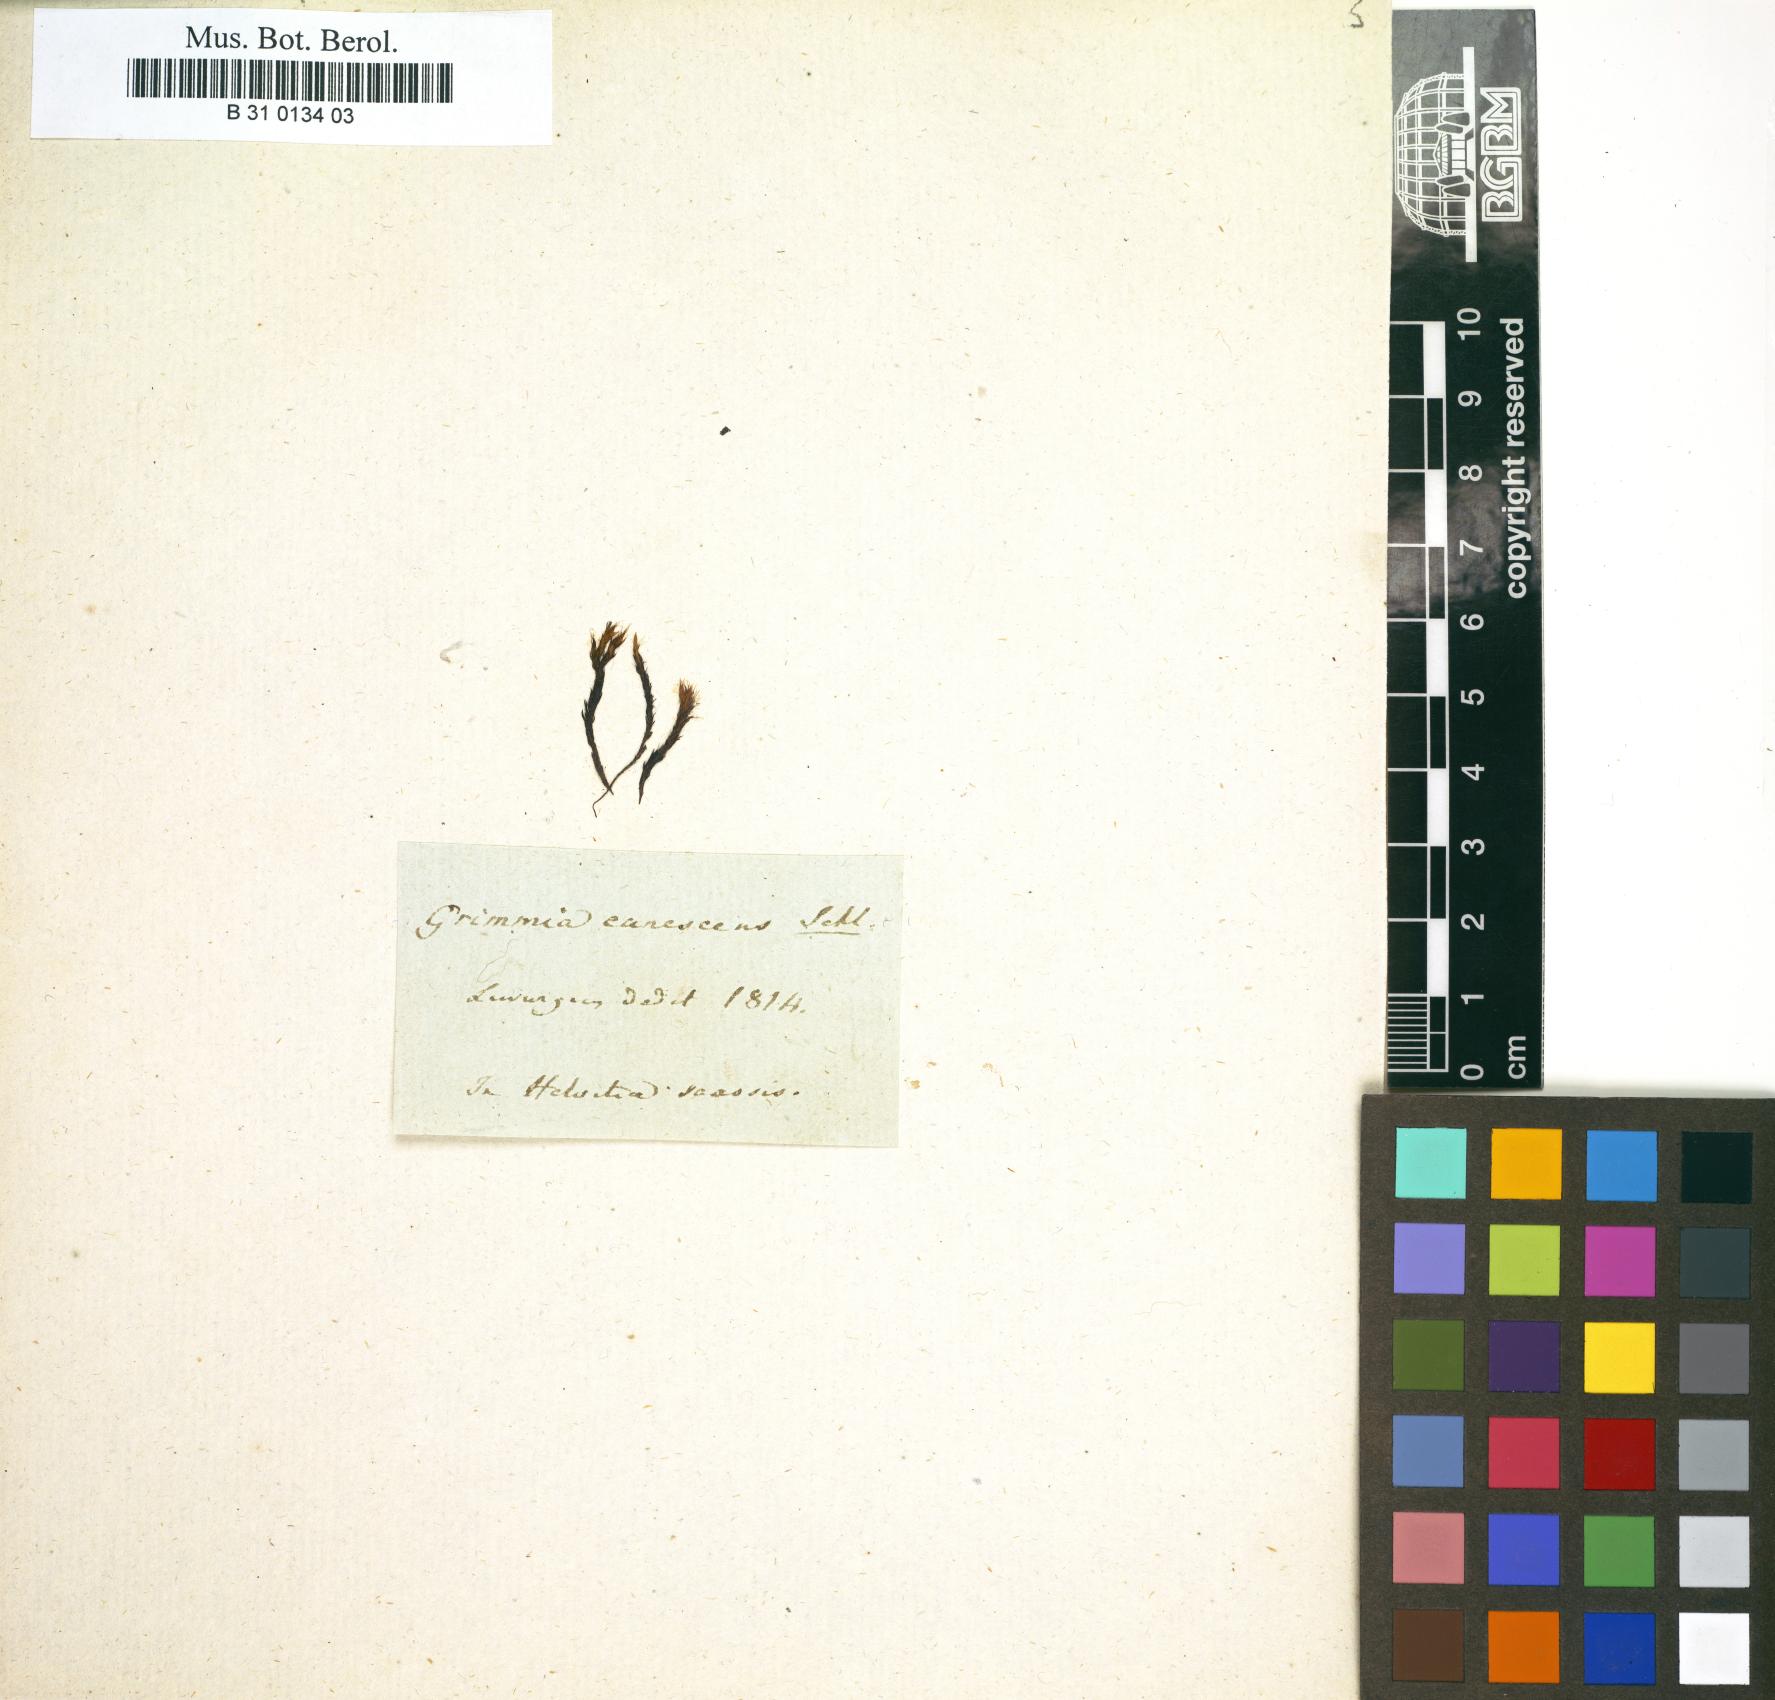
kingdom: Plantae
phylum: Bryophyta
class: Bryopsida
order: Grimmiales
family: Grimmiaceae
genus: Grimmia
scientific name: Grimmia crinita
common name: Hedgehog grimmia
